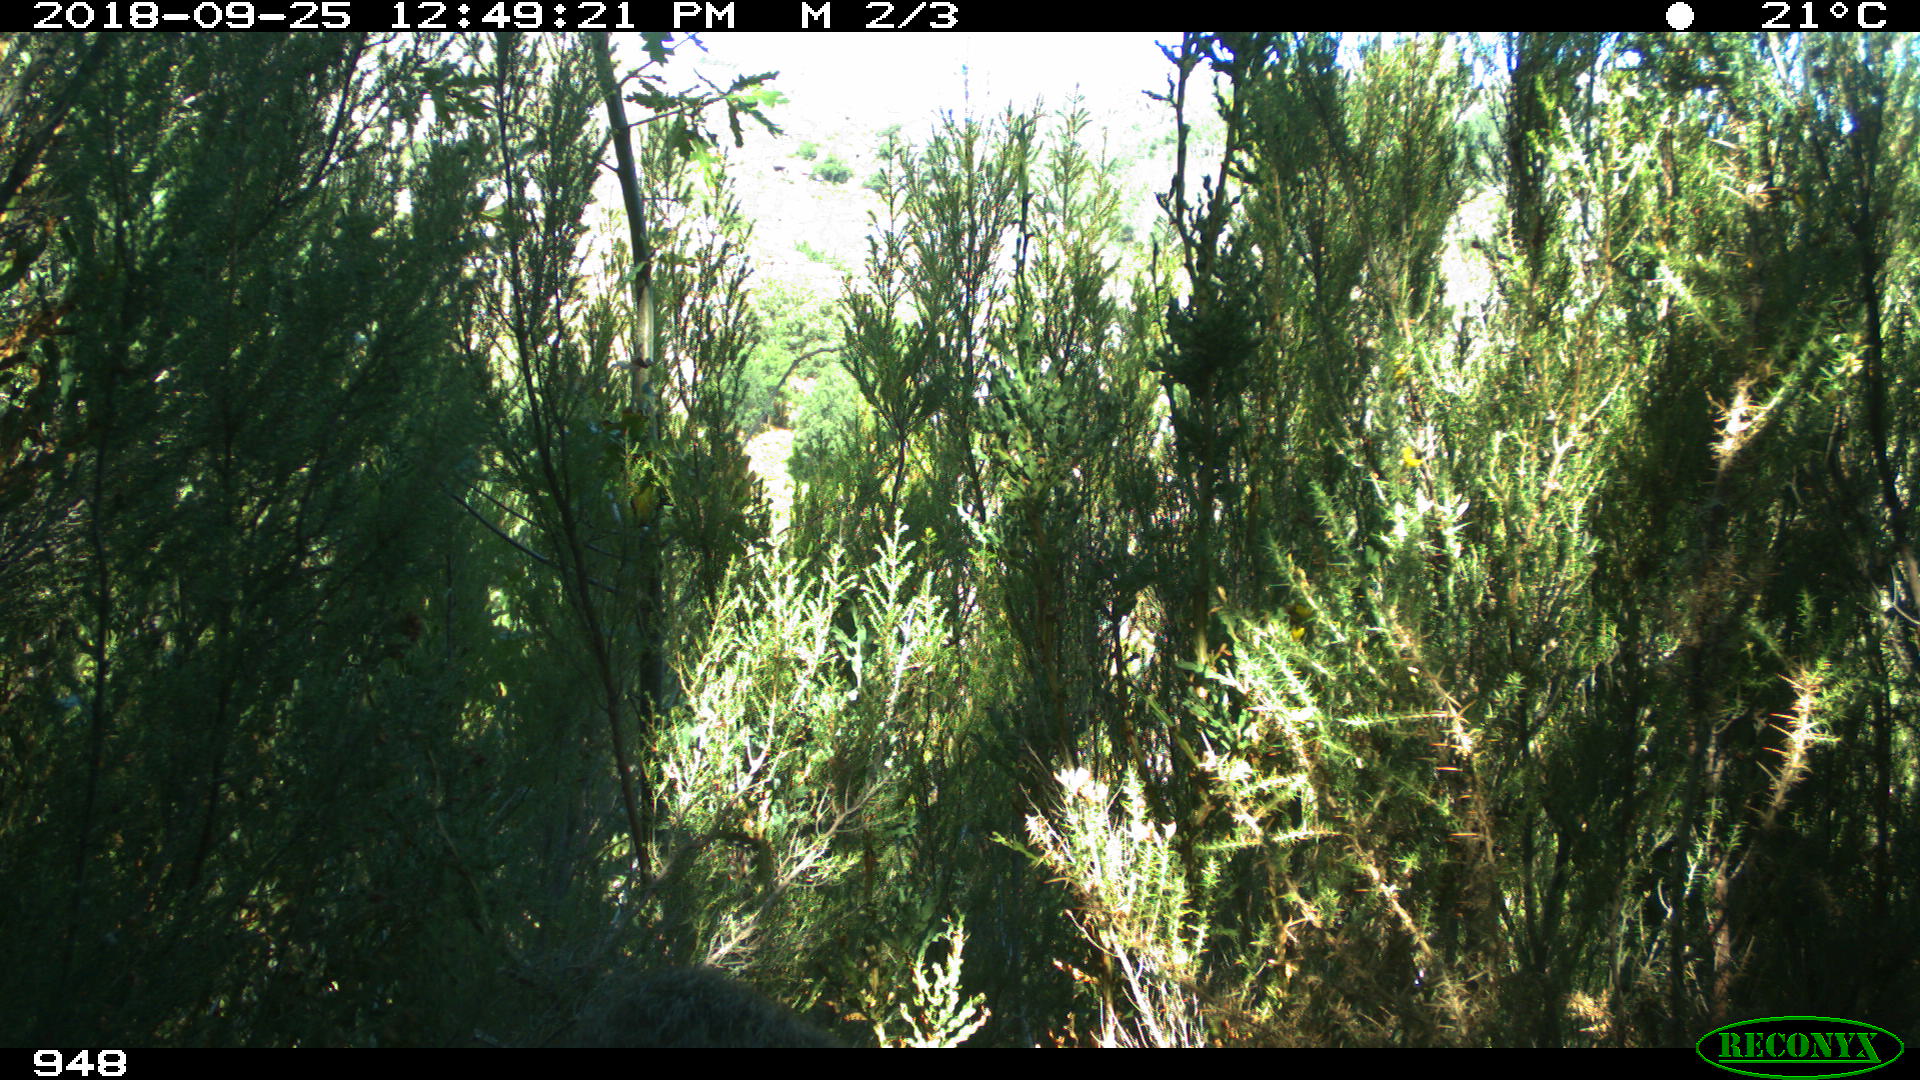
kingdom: Animalia
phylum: Chordata
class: Mammalia
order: Artiodactyla
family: Suidae
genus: Sus
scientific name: Sus scrofa
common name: Wild boar
